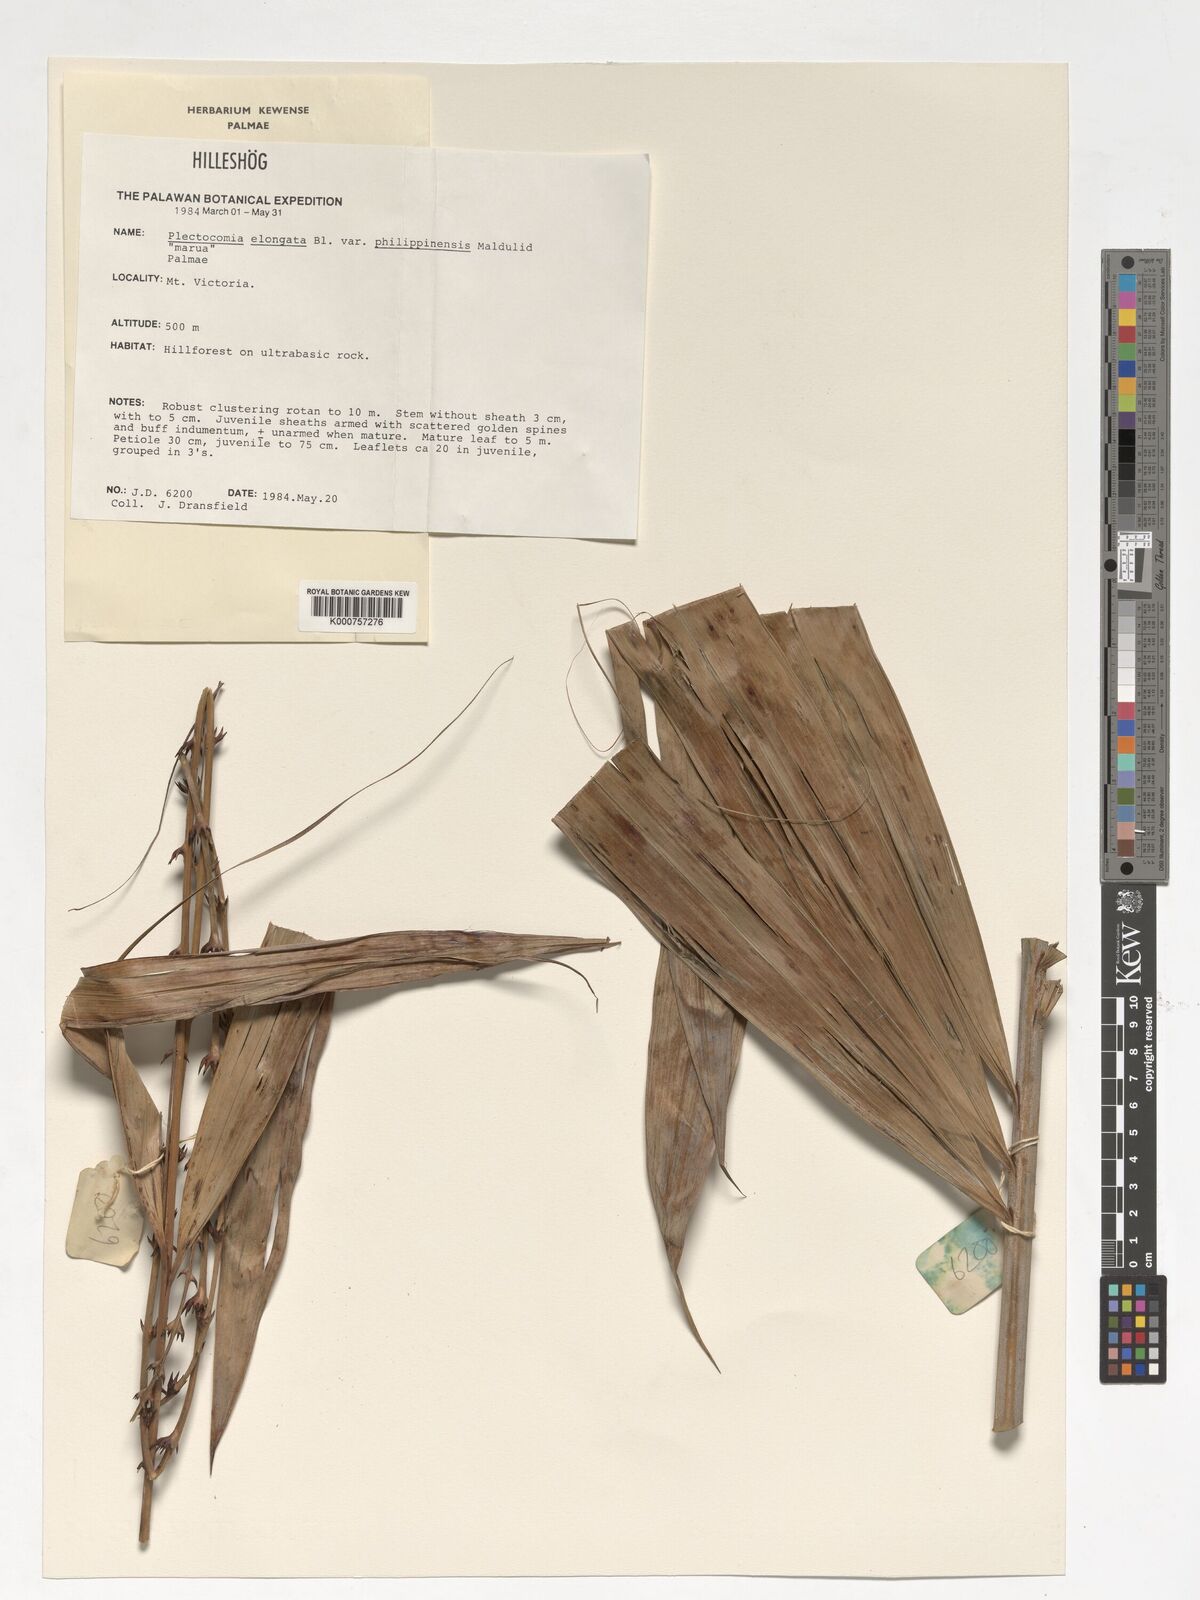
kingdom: Plantae
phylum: Tracheophyta
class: Liliopsida
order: Arecales
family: Arecaceae
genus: Plectocomia
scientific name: Plectocomia elongata
